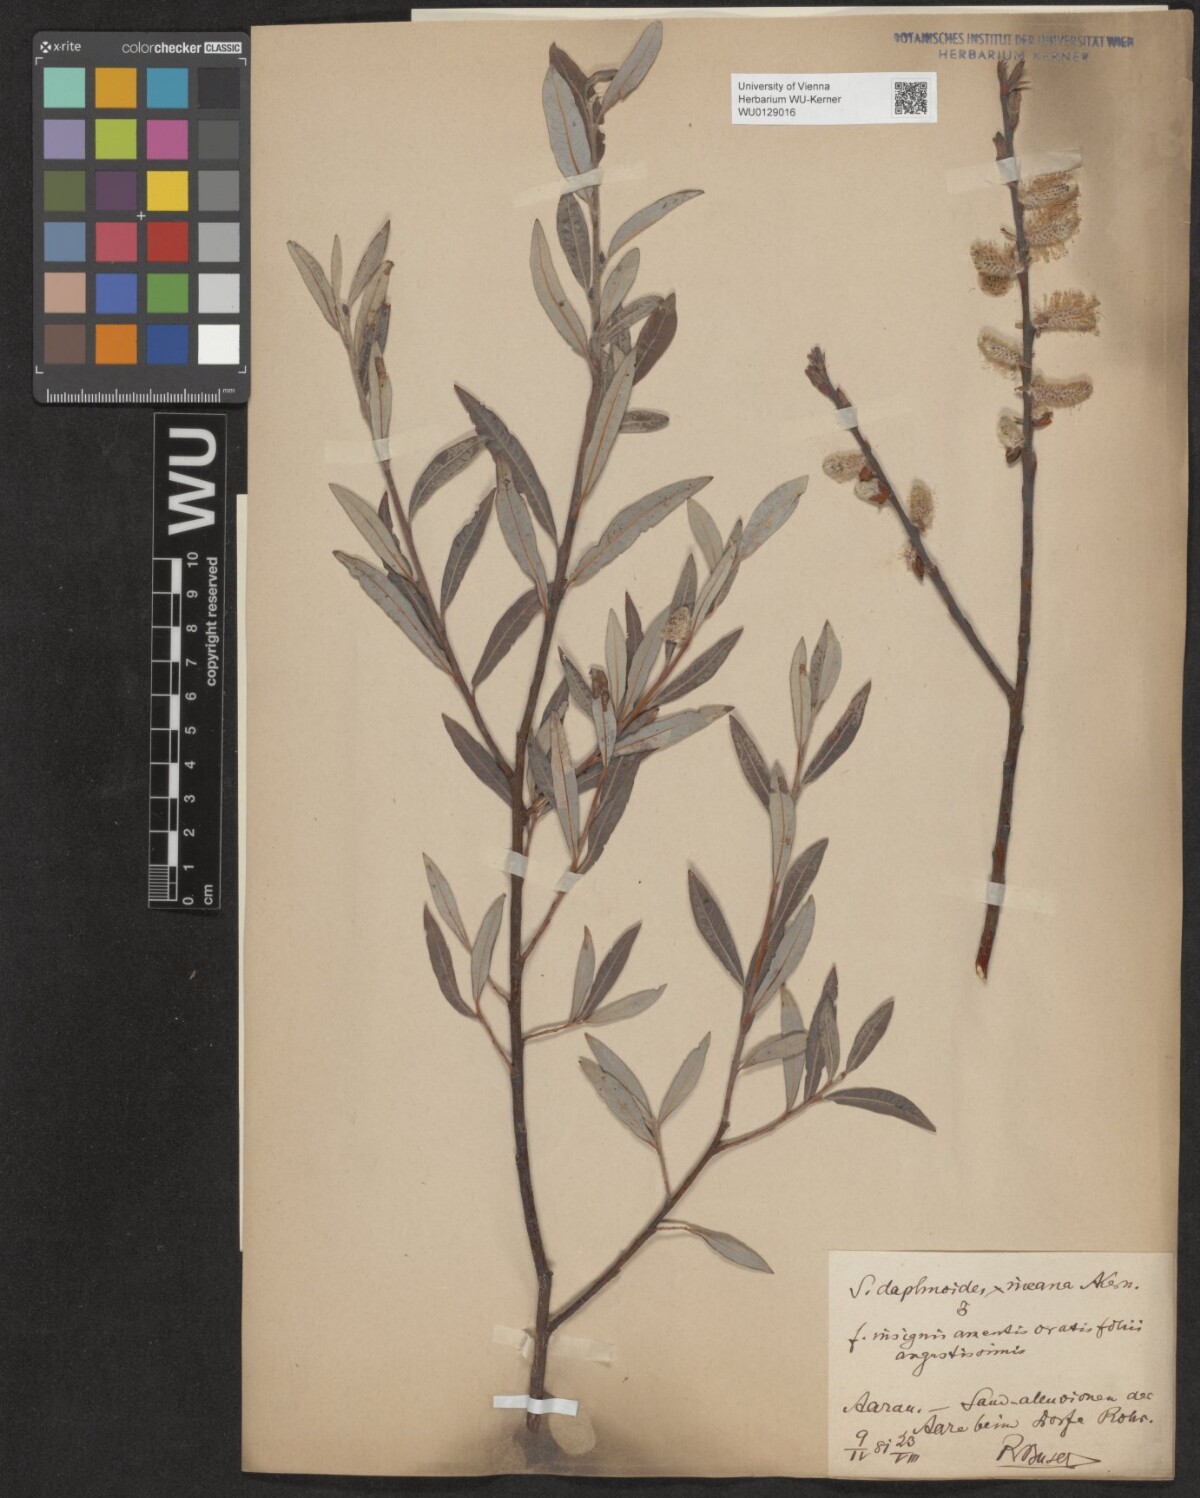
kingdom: Plantae
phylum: Tracheophyta
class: Magnoliopsida
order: Malpighiales
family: Salicaceae
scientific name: Salicaceae
